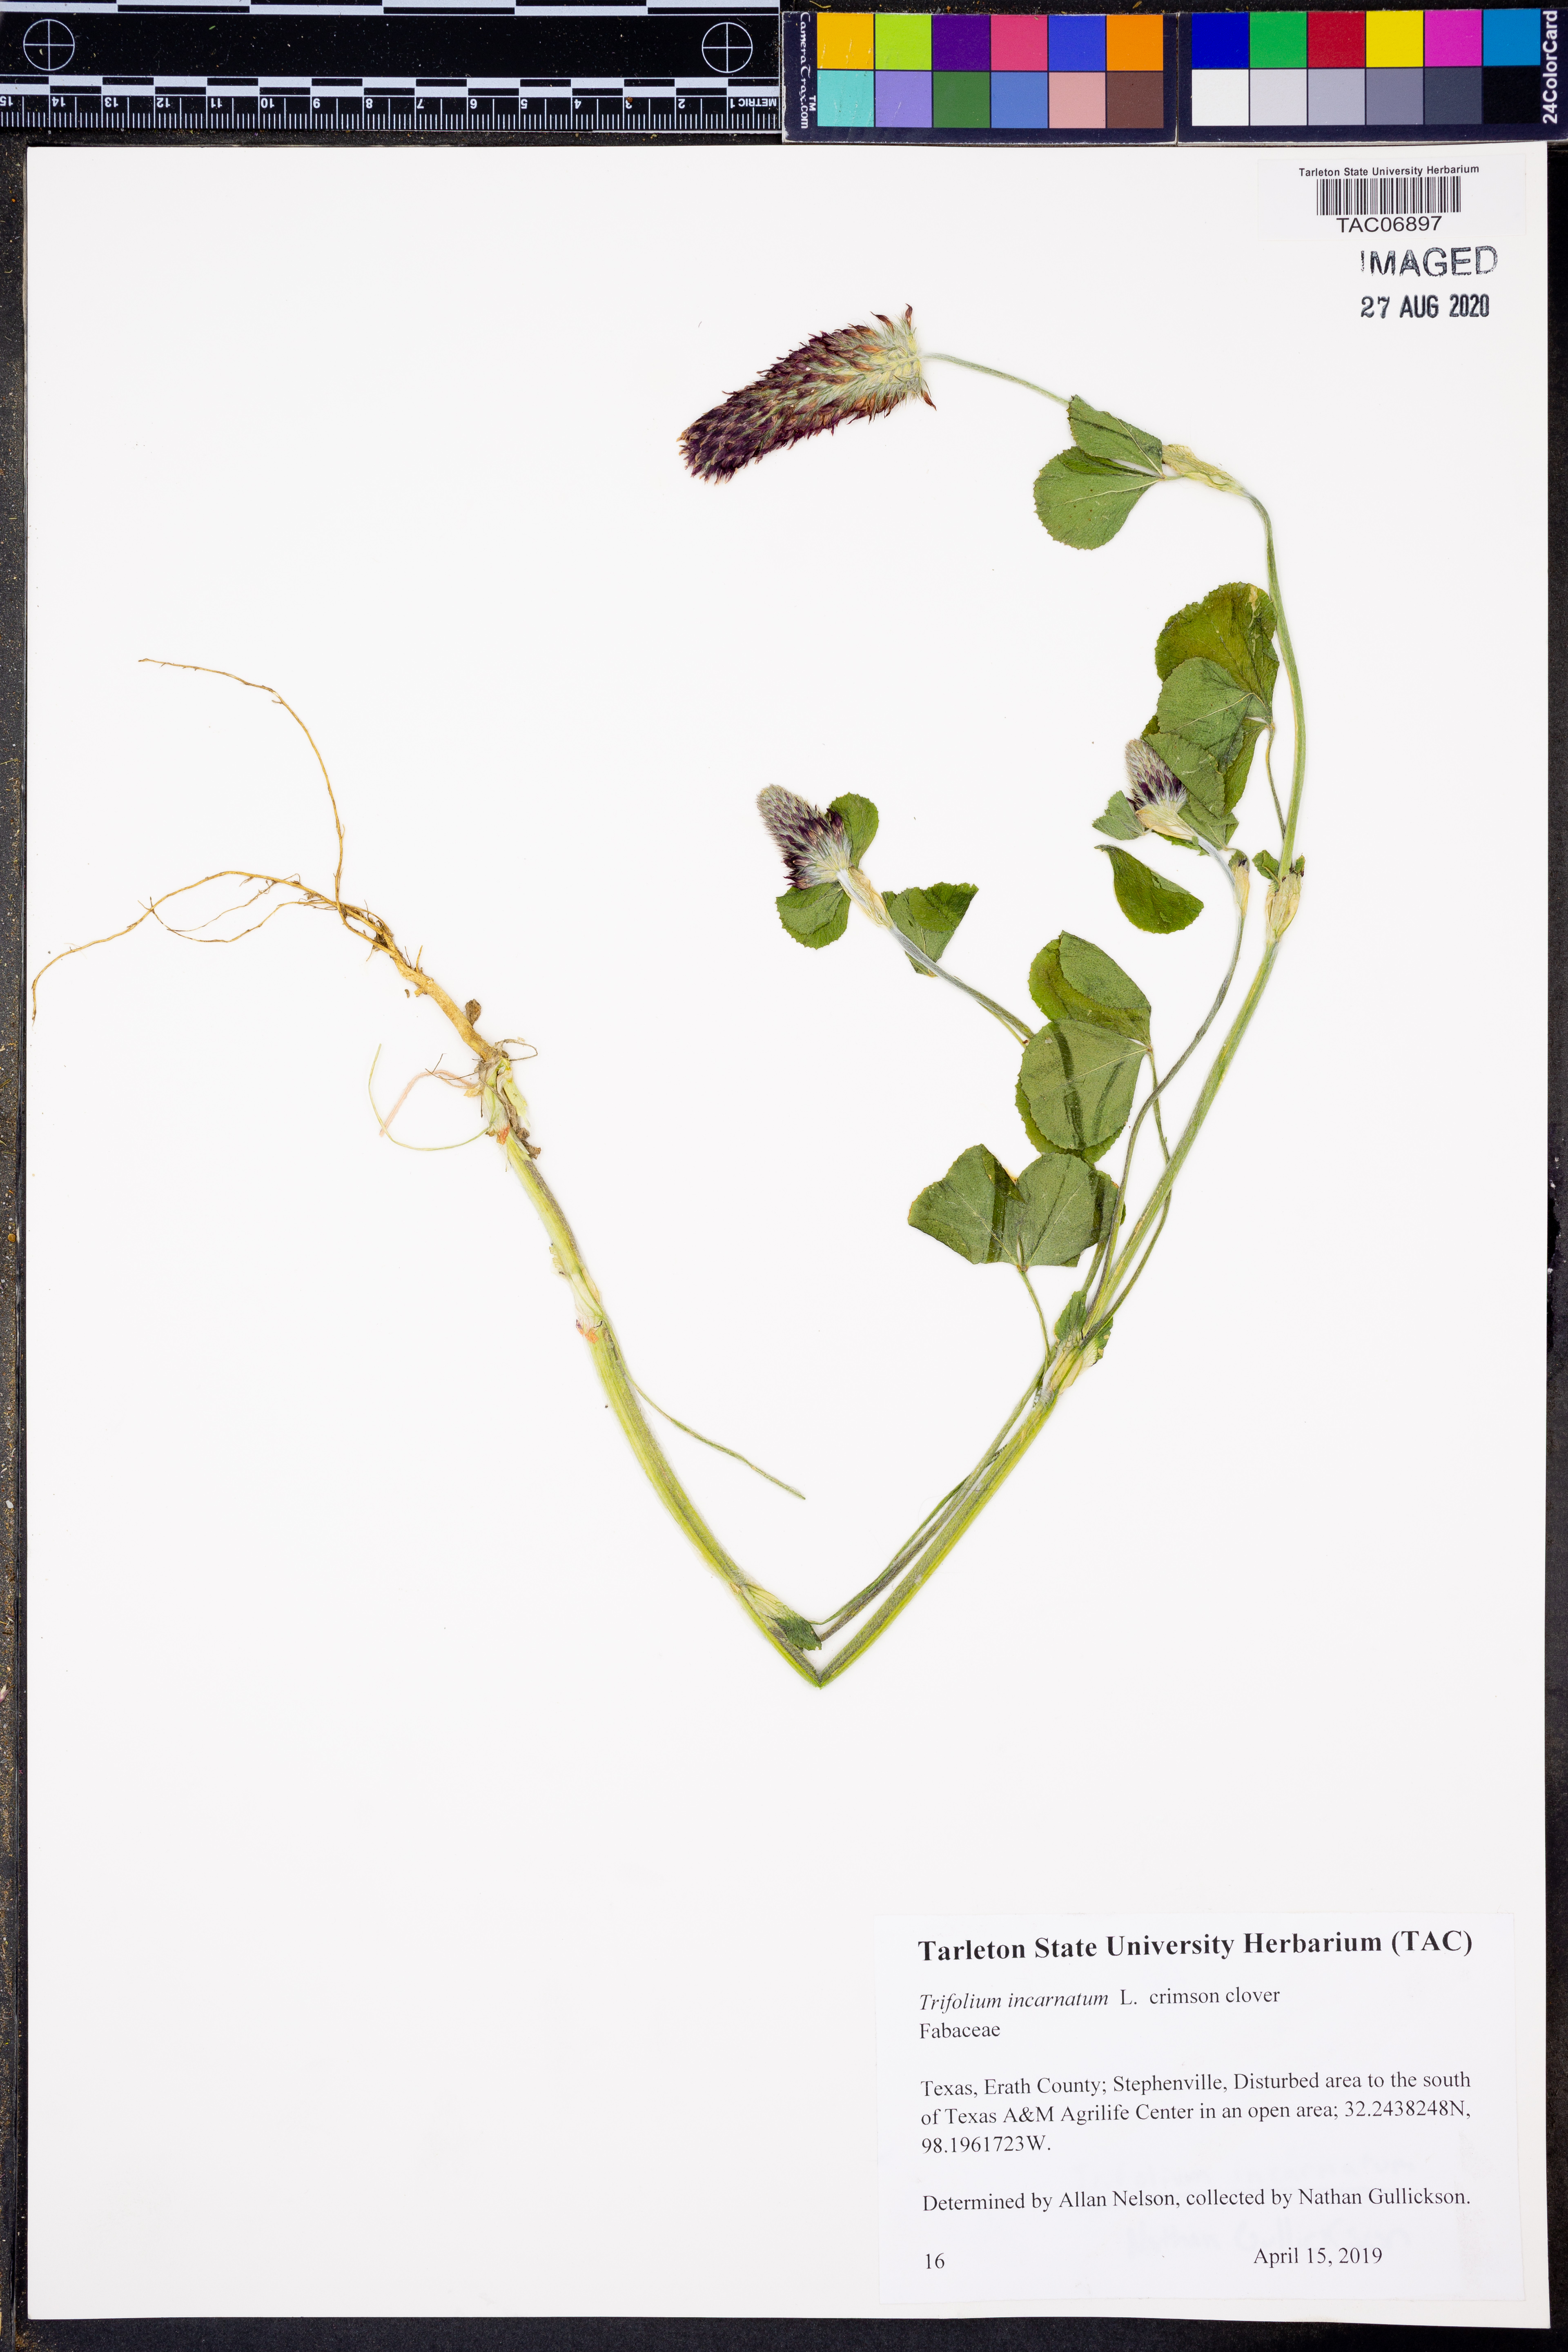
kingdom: Plantae
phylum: Tracheophyta
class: Magnoliopsida
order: Fabales
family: Fabaceae
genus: Trifolium
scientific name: Trifolium incarnatum
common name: Crimson clover
